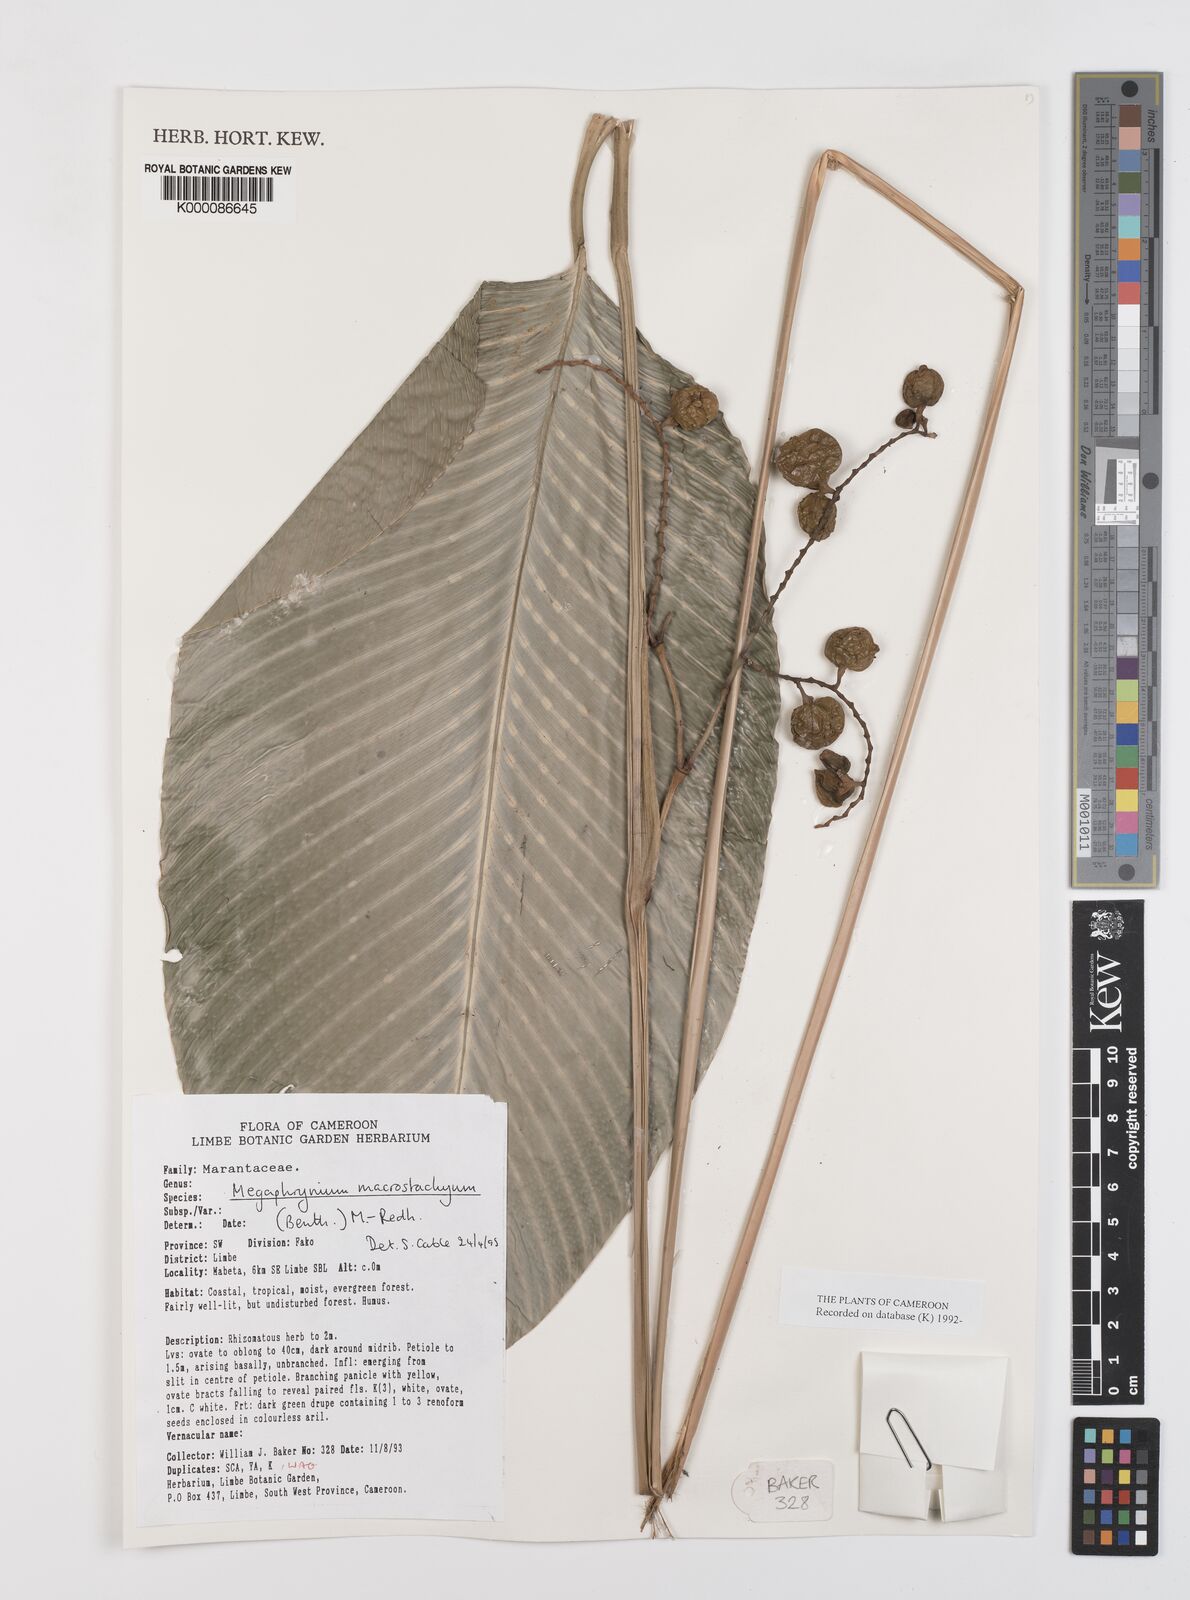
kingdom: Plantae
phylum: Tracheophyta
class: Liliopsida
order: Zingiberales
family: Marantaceae
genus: Megaphrynium
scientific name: Megaphrynium macrostachyum
